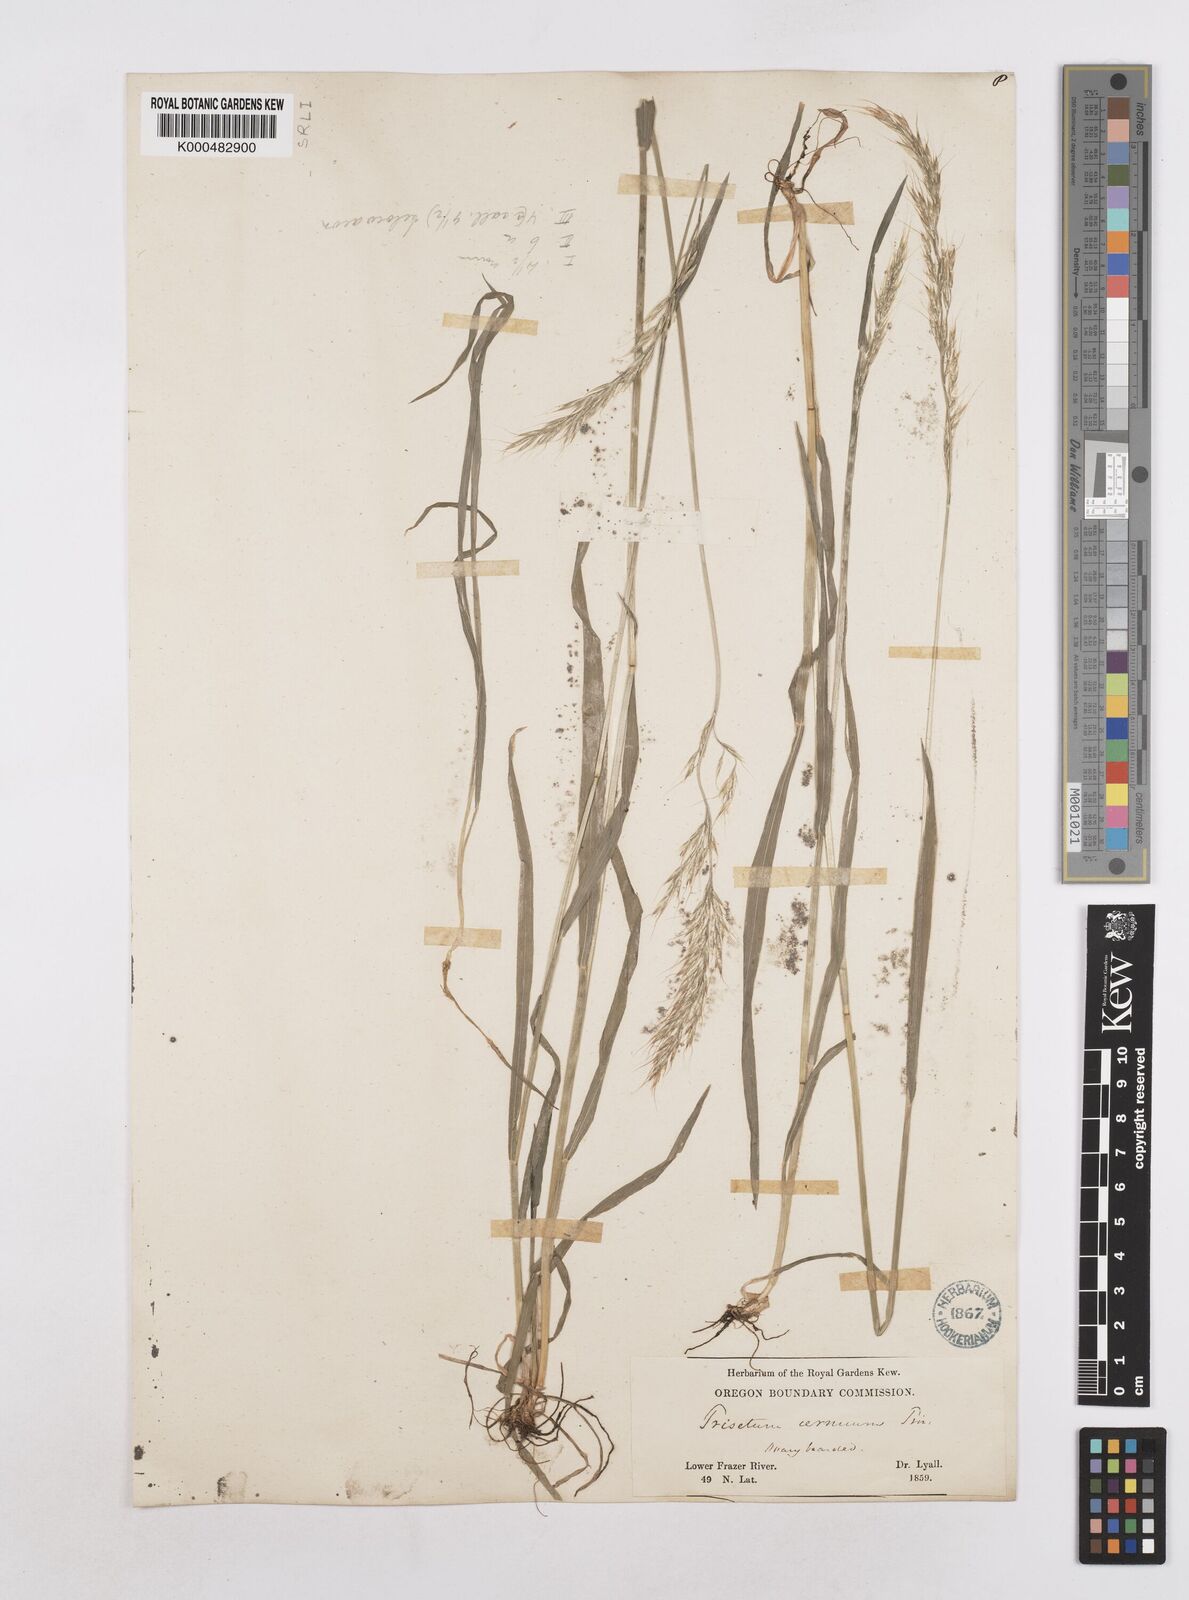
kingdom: Plantae
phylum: Tracheophyta
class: Liliopsida
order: Poales
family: Poaceae
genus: Graphephorum
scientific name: Graphephorum canescens
